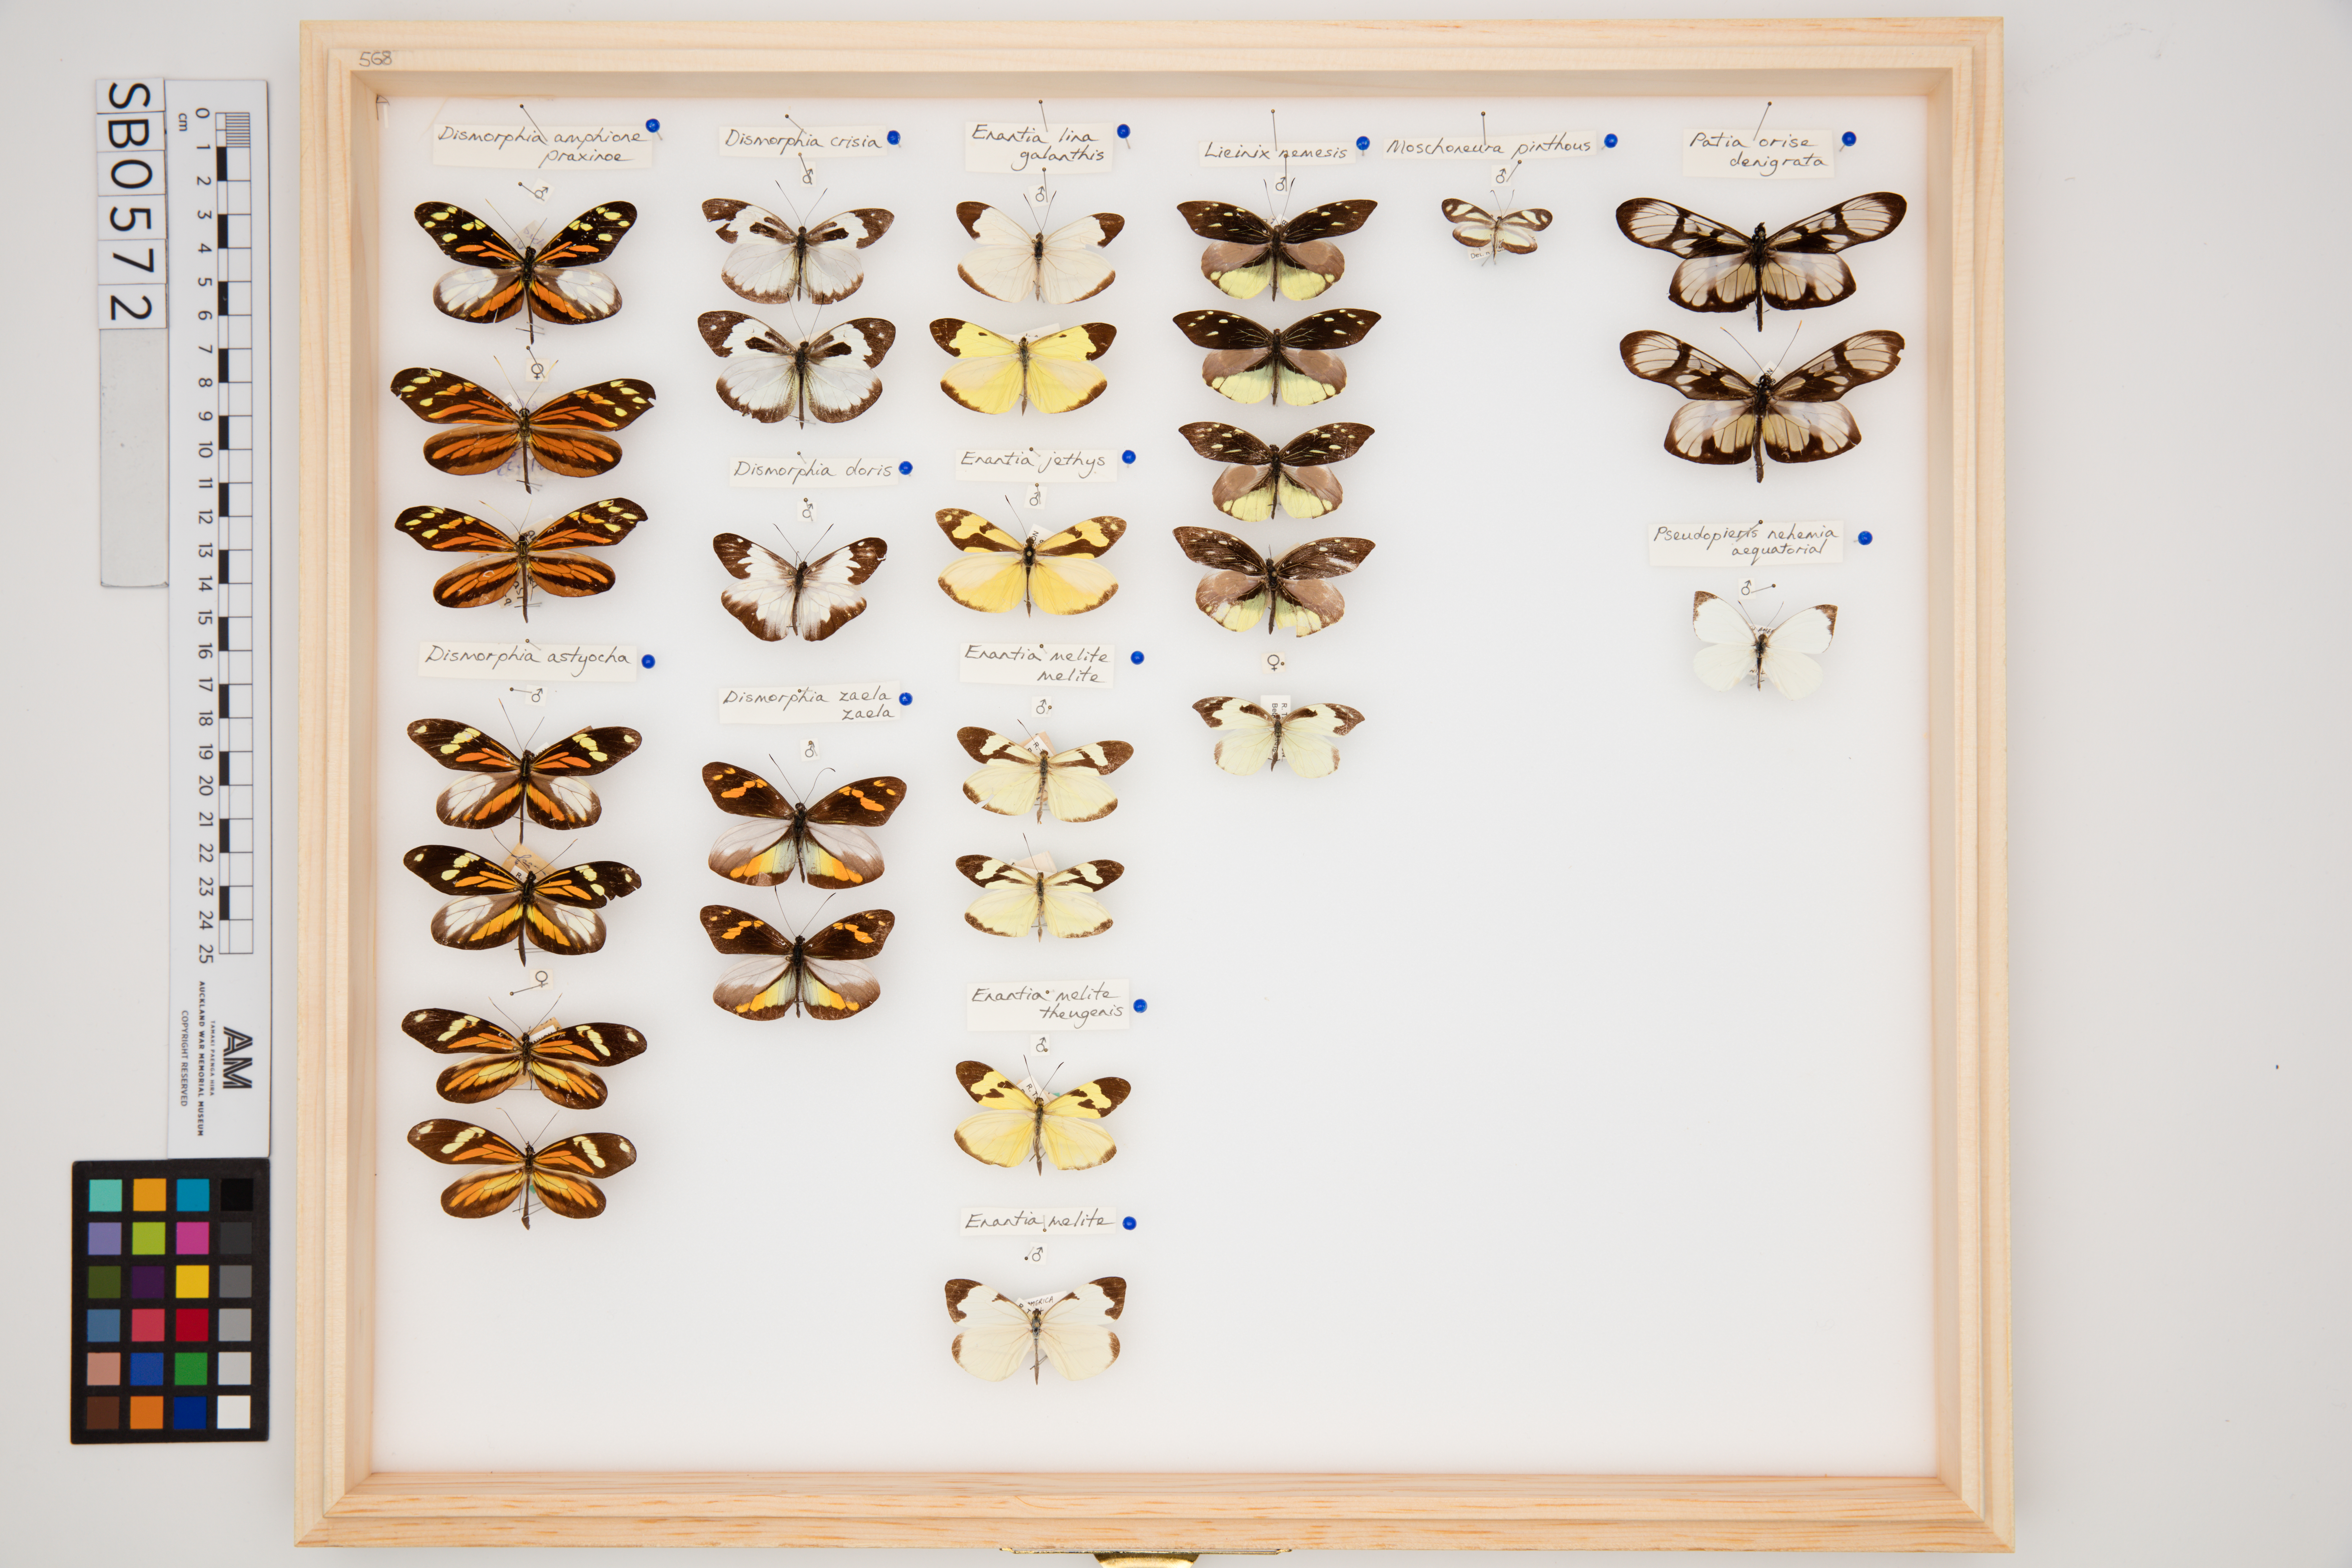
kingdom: Animalia
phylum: Arthropoda
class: Insecta
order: Lepidoptera
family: Pieridae
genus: Dismorphia
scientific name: Dismorphia amphione
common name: Tiger mimic-white
